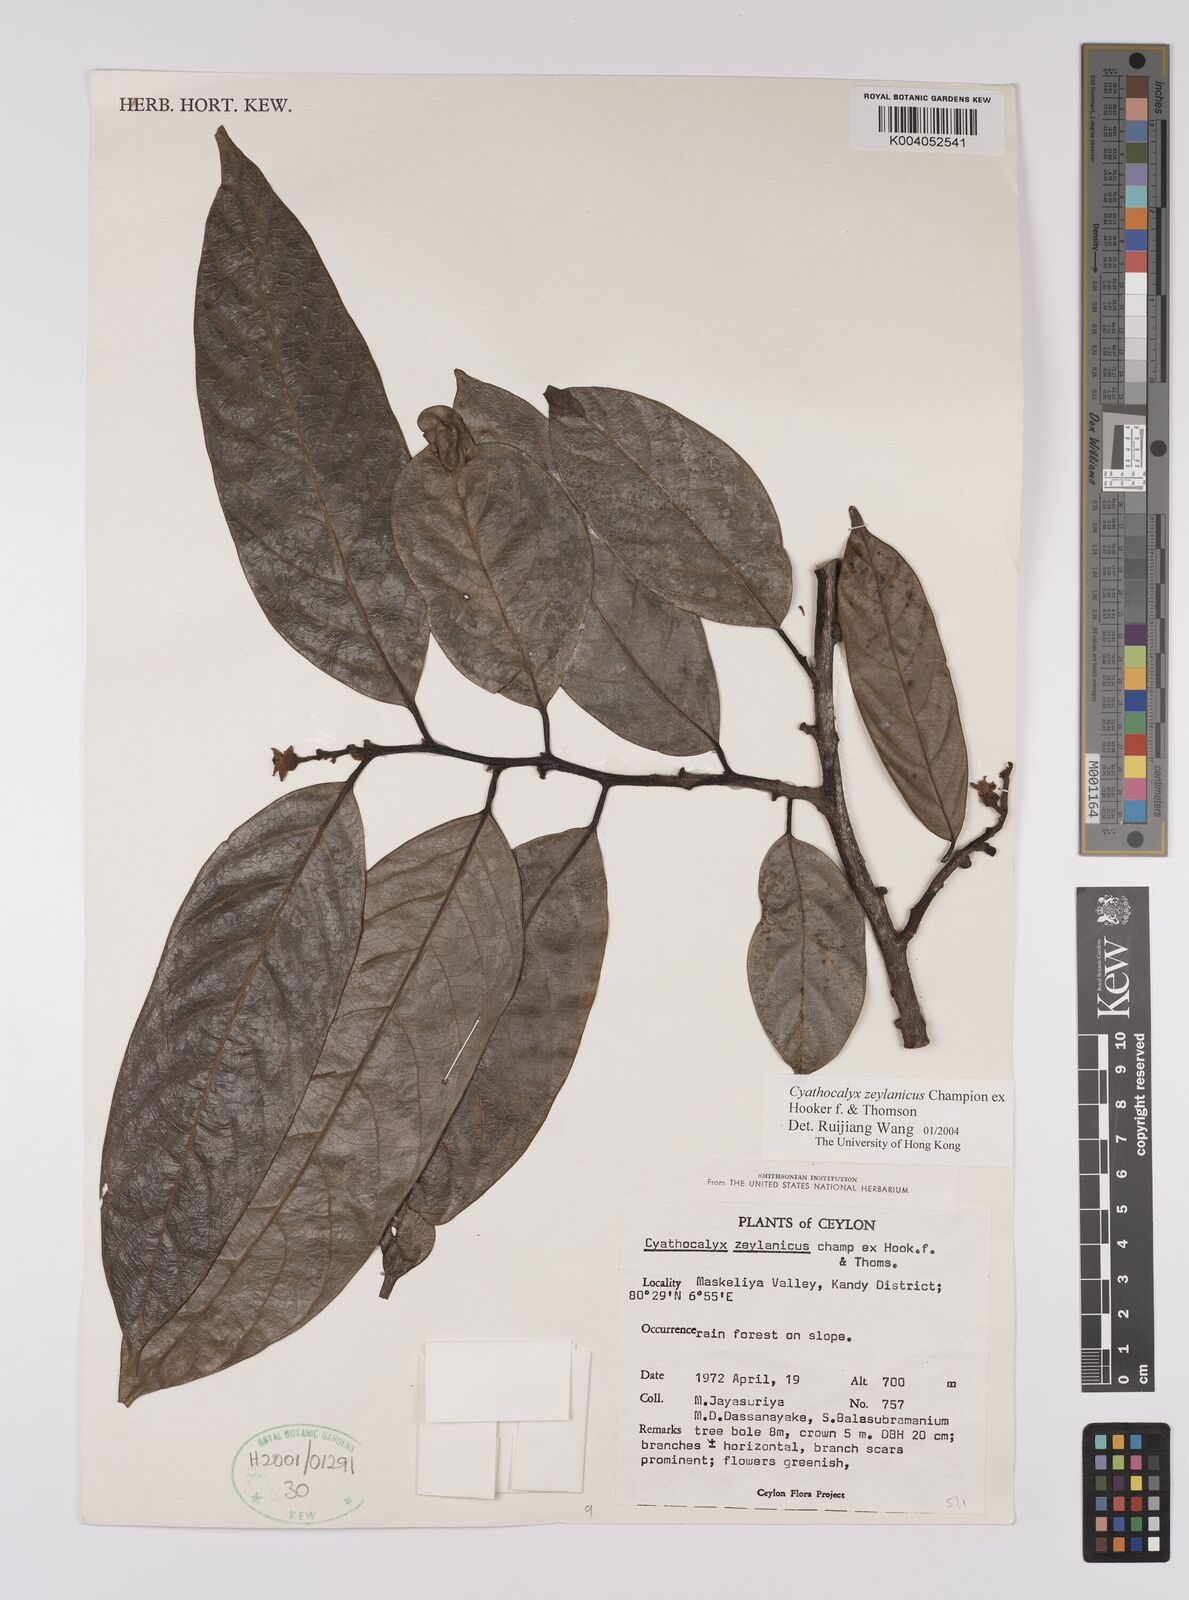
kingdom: Plantae
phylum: Tracheophyta
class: Magnoliopsida
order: Magnoliales
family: Annonaceae
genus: Cyathocalyx
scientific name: Cyathocalyx zeylanicus
